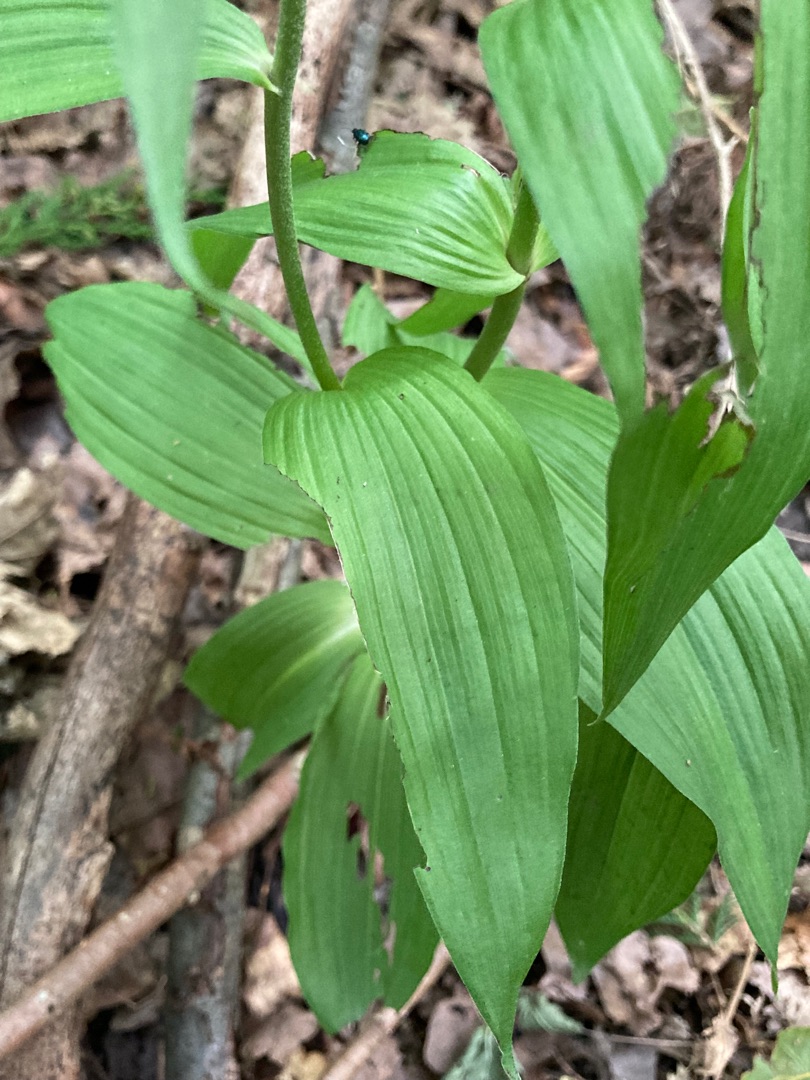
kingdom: Plantae
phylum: Tracheophyta
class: Liliopsida
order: Asparagales
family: Orchidaceae
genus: Epipactis
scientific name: Epipactis helleborine
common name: Skov-hullæbe
